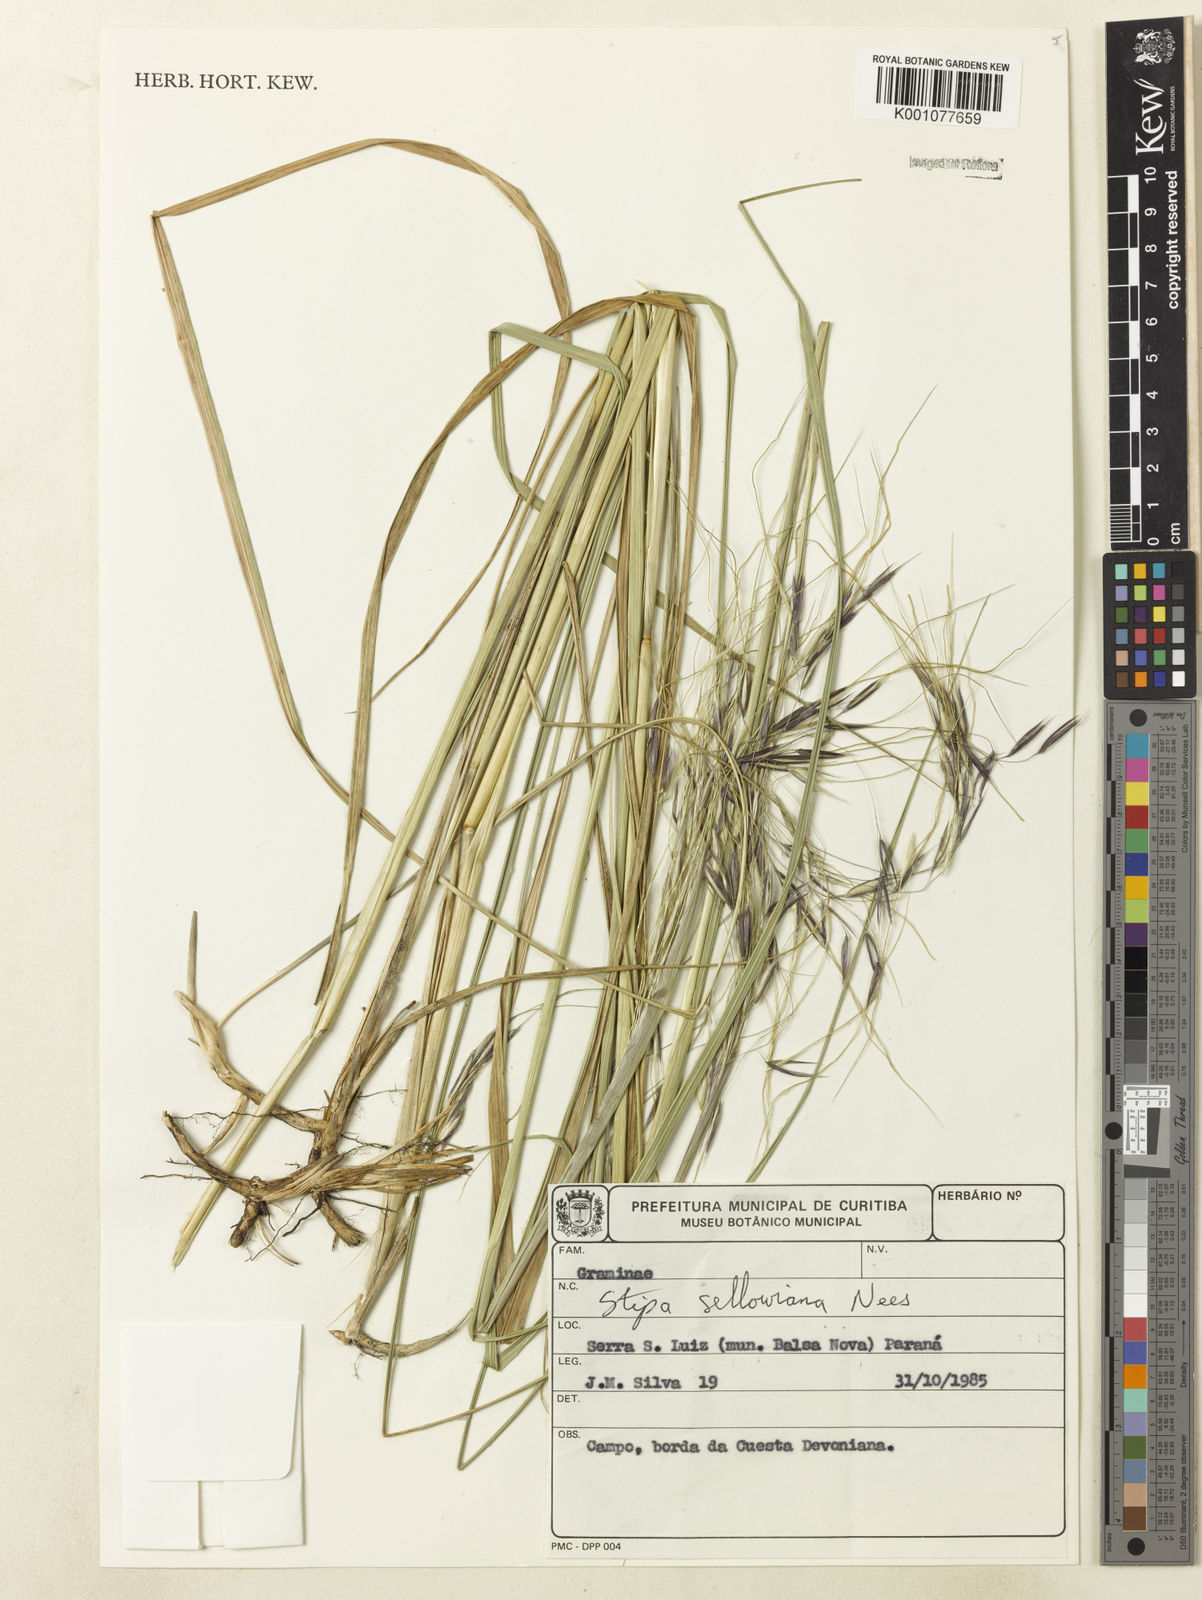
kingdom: Plantae
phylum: Tracheophyta
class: Liliopsida
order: Poales
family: Poaceae
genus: Nassella
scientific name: Nassella
